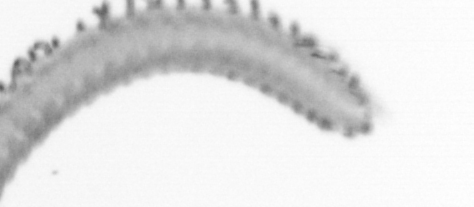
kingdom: Animalia
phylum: Annelida
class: Polychaeta
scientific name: Polychaeta
